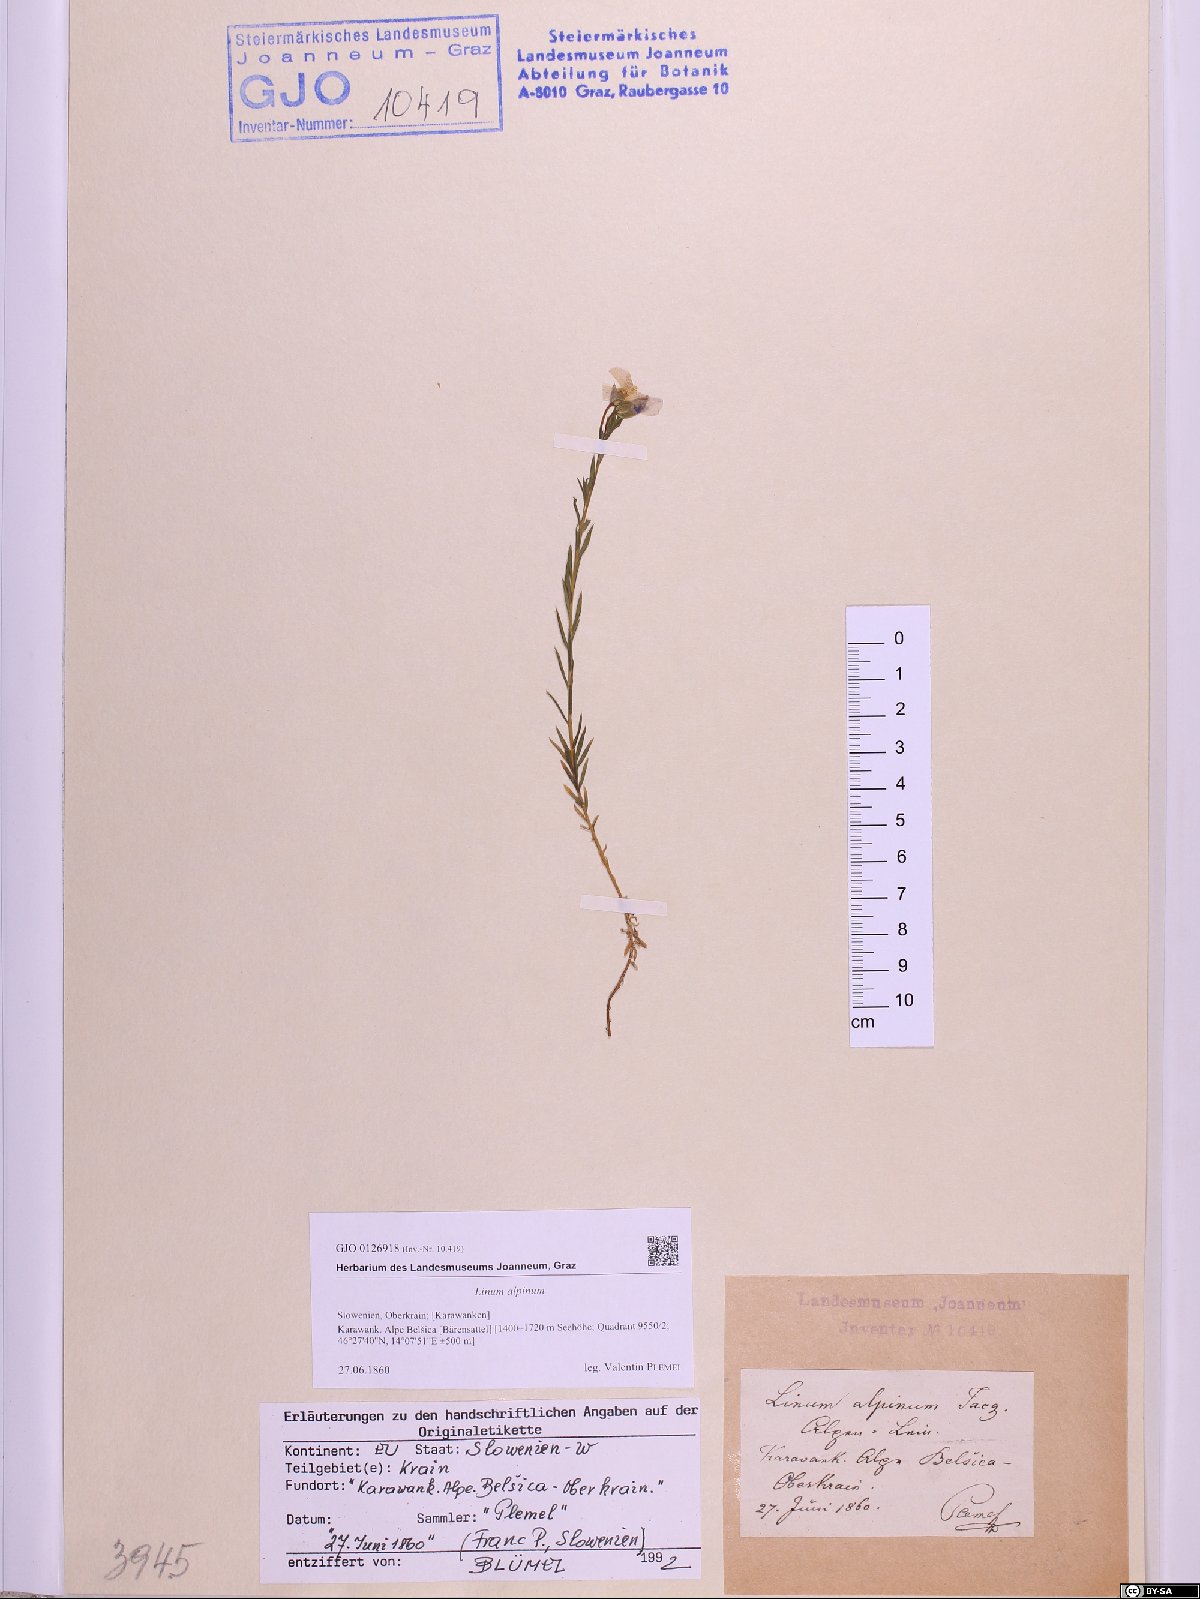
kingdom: Plantae
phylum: Tracheophyta
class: Magnoliopsida
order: Malpighiales
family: Linaceae
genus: Linum
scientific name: Linum alpinum
